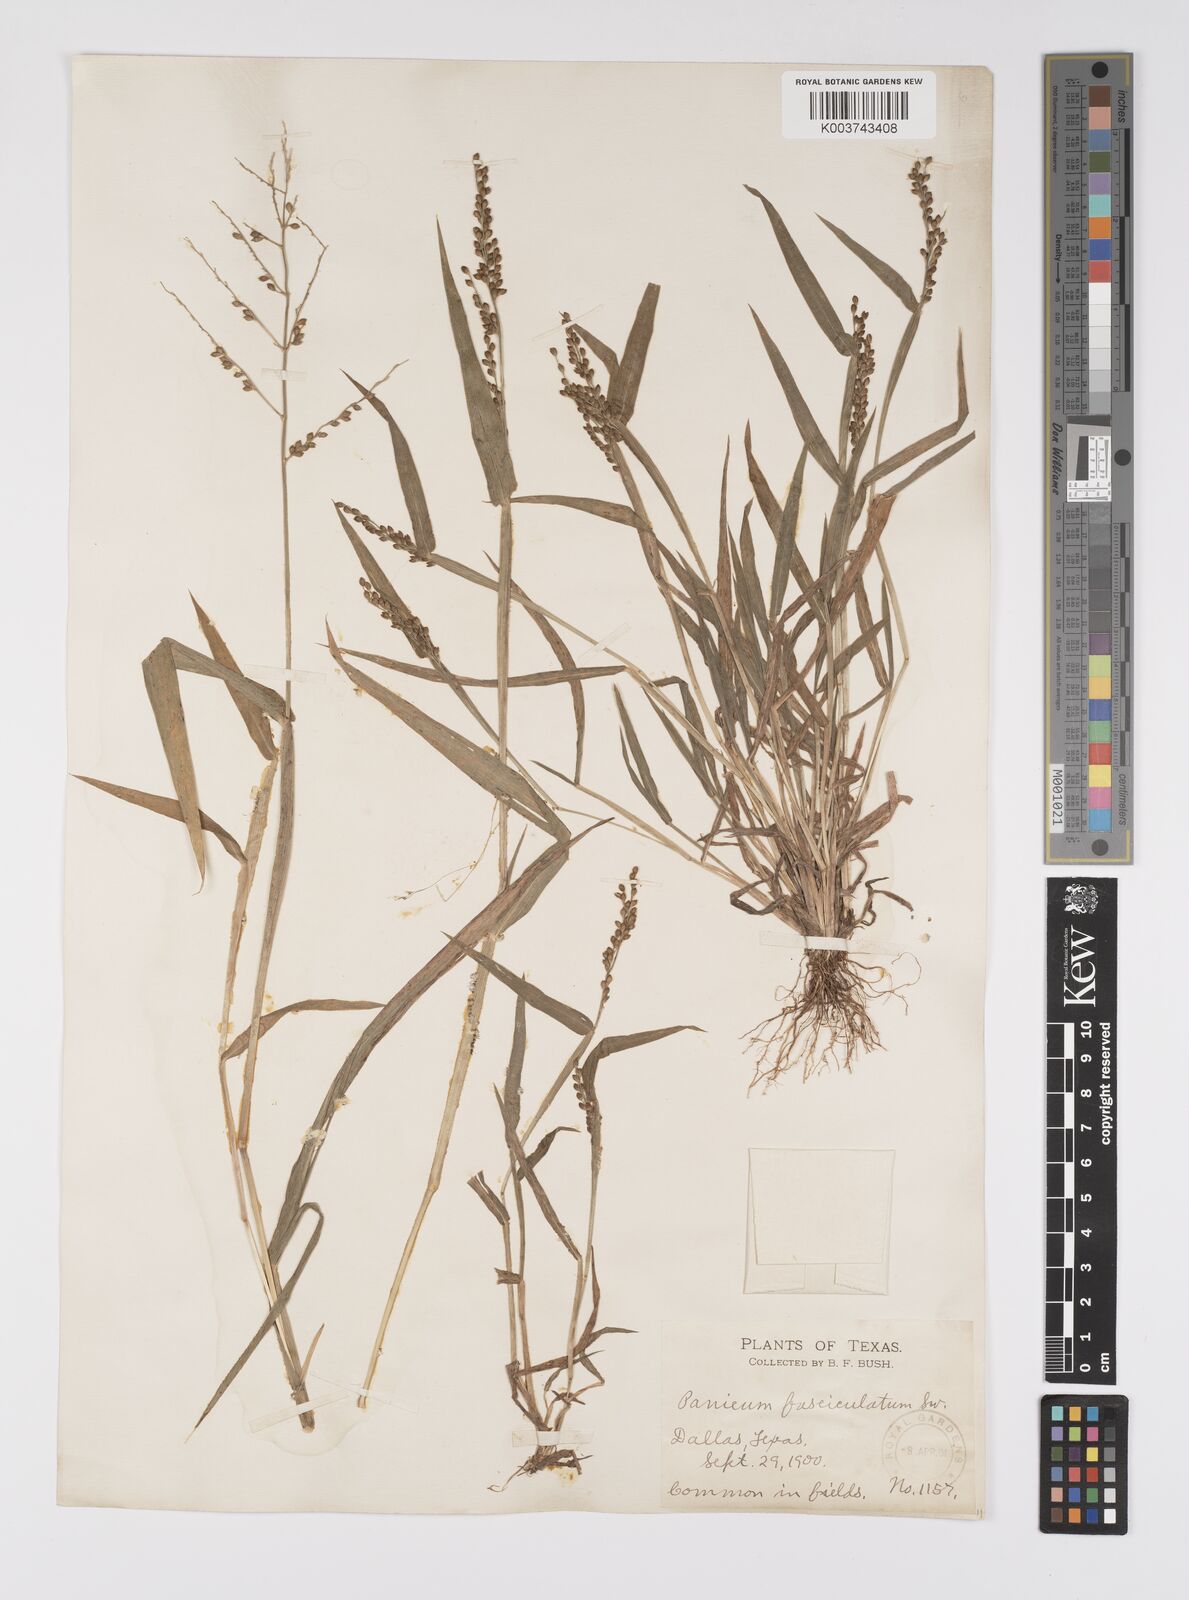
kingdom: Plantae
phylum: Tracheophyta
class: Liliopsida
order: Poales
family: Poaceae
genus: Urochloa
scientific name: Urochloa fusca
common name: Browntop signal grass
